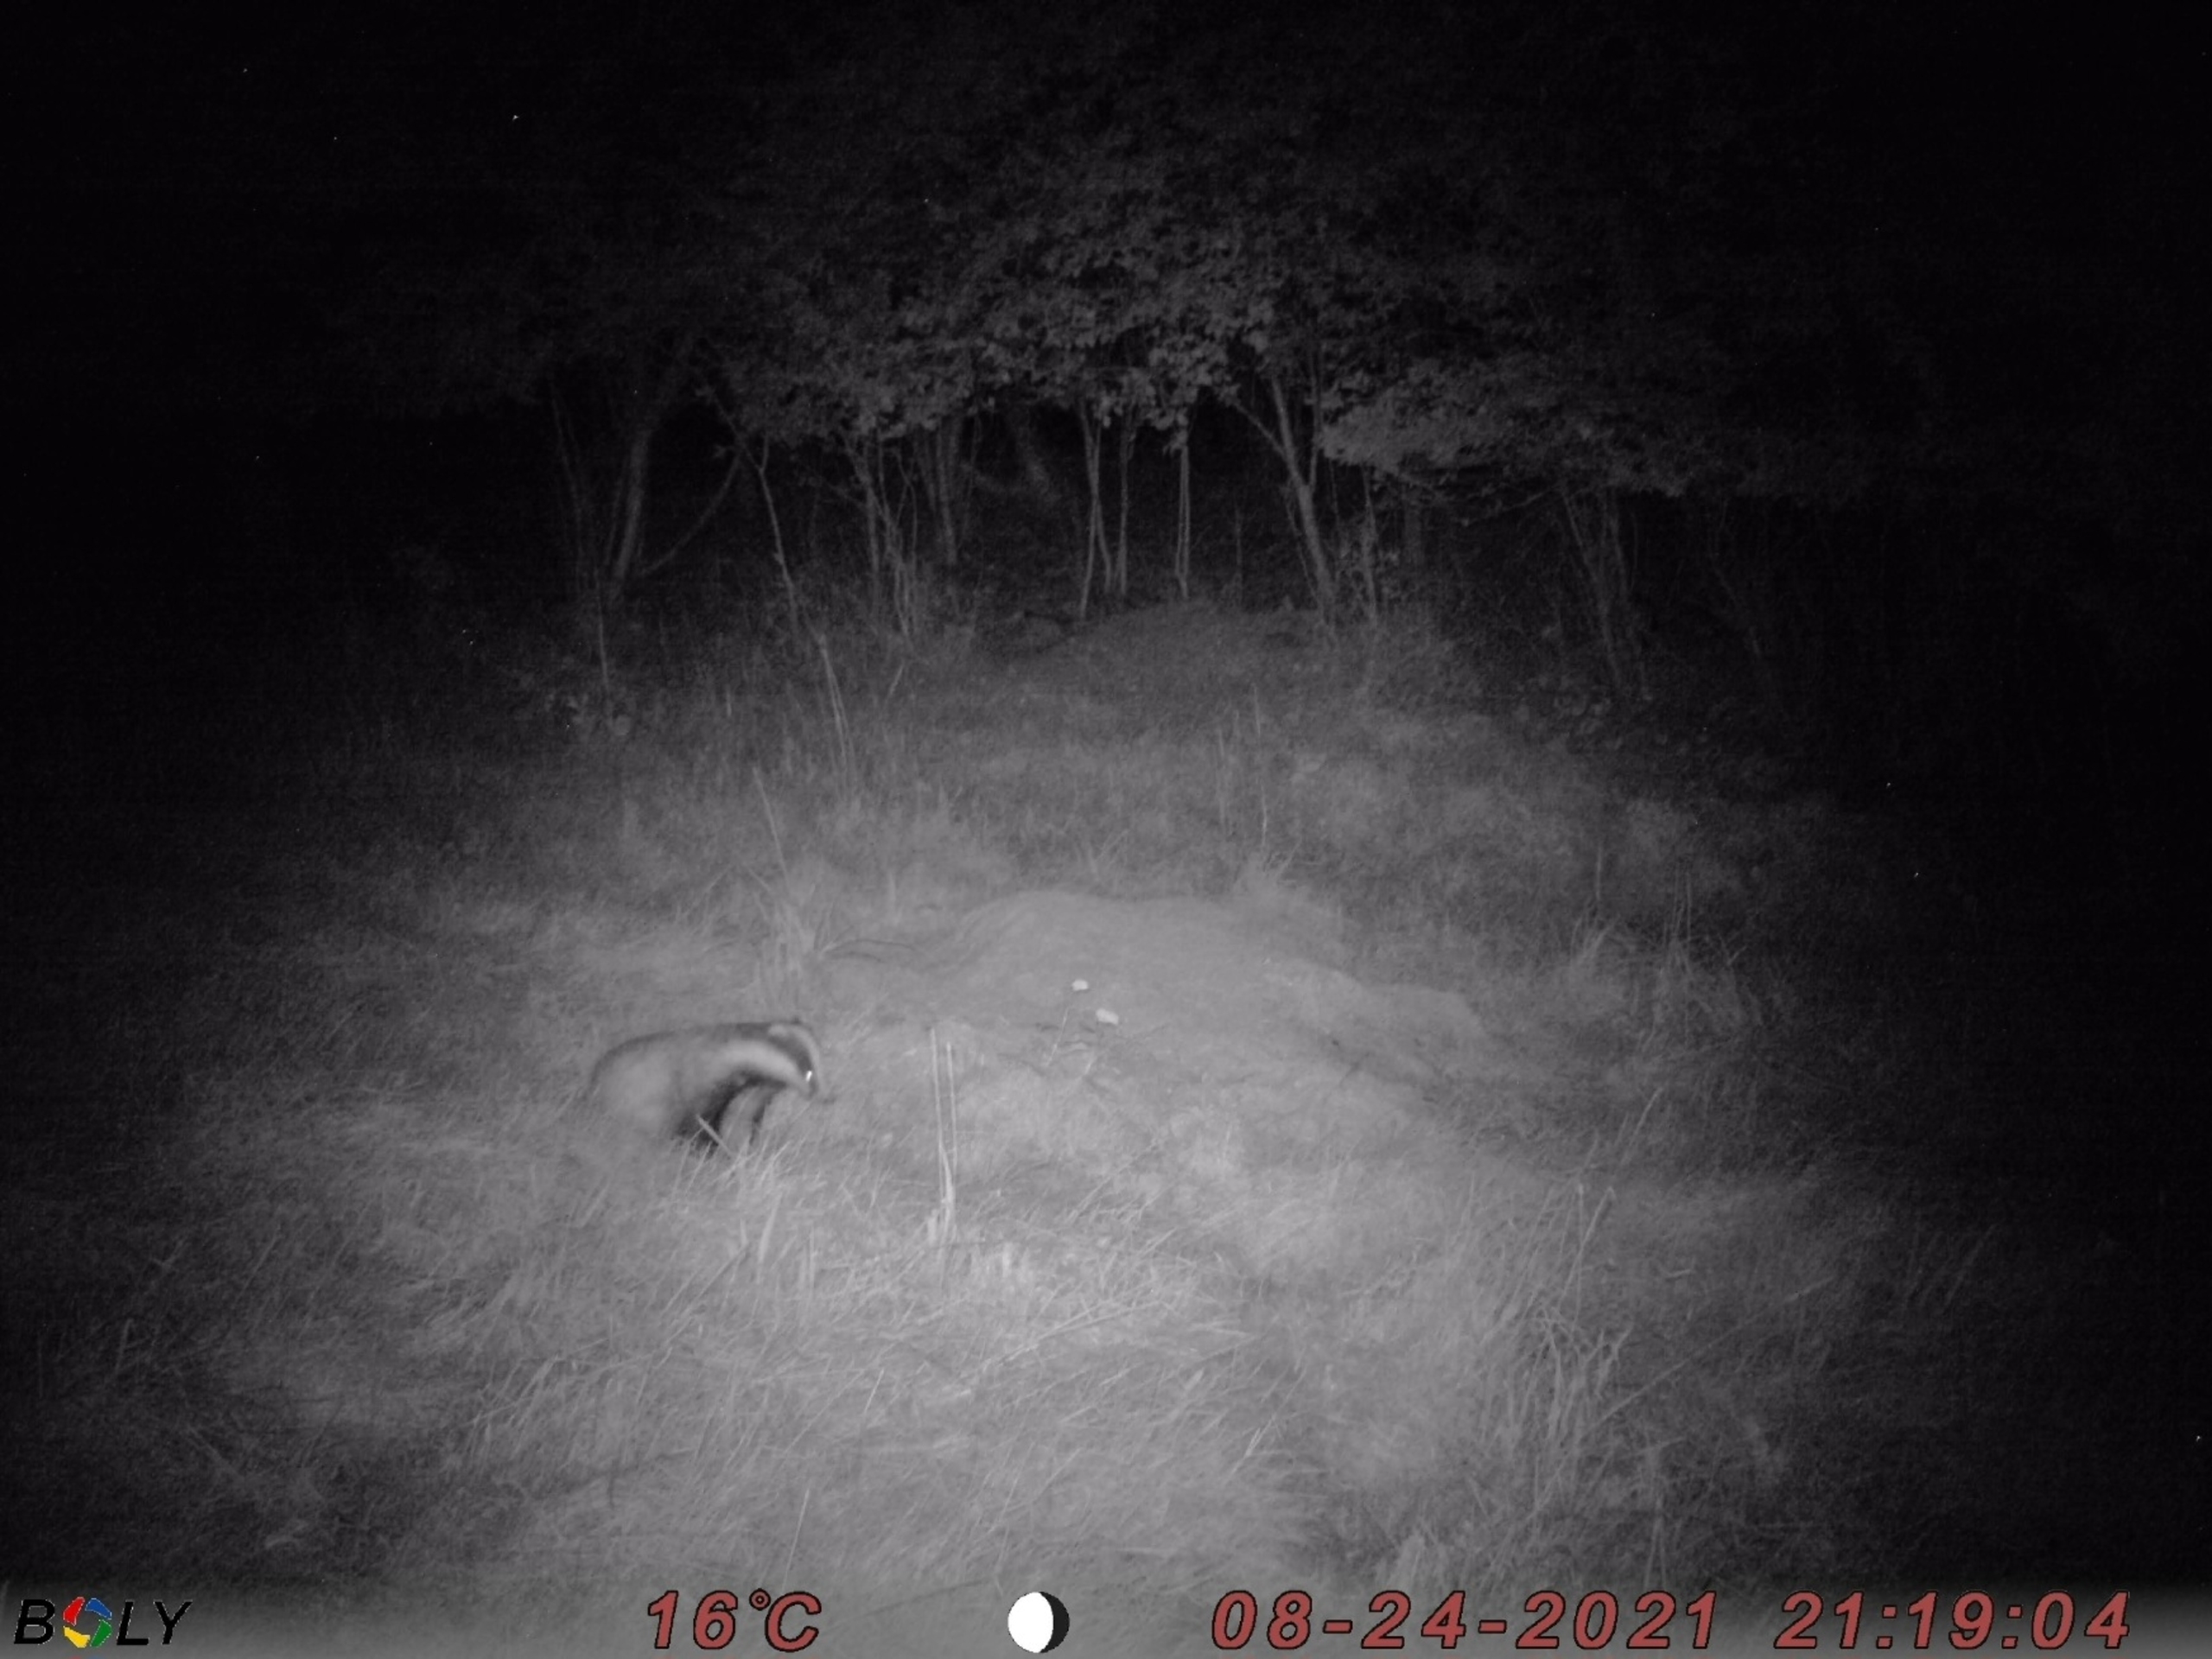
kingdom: Animalia
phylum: Chordata
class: Mammalia
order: Carnivora
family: Mustelidae
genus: Meles
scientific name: Meles meles
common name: Grævling
